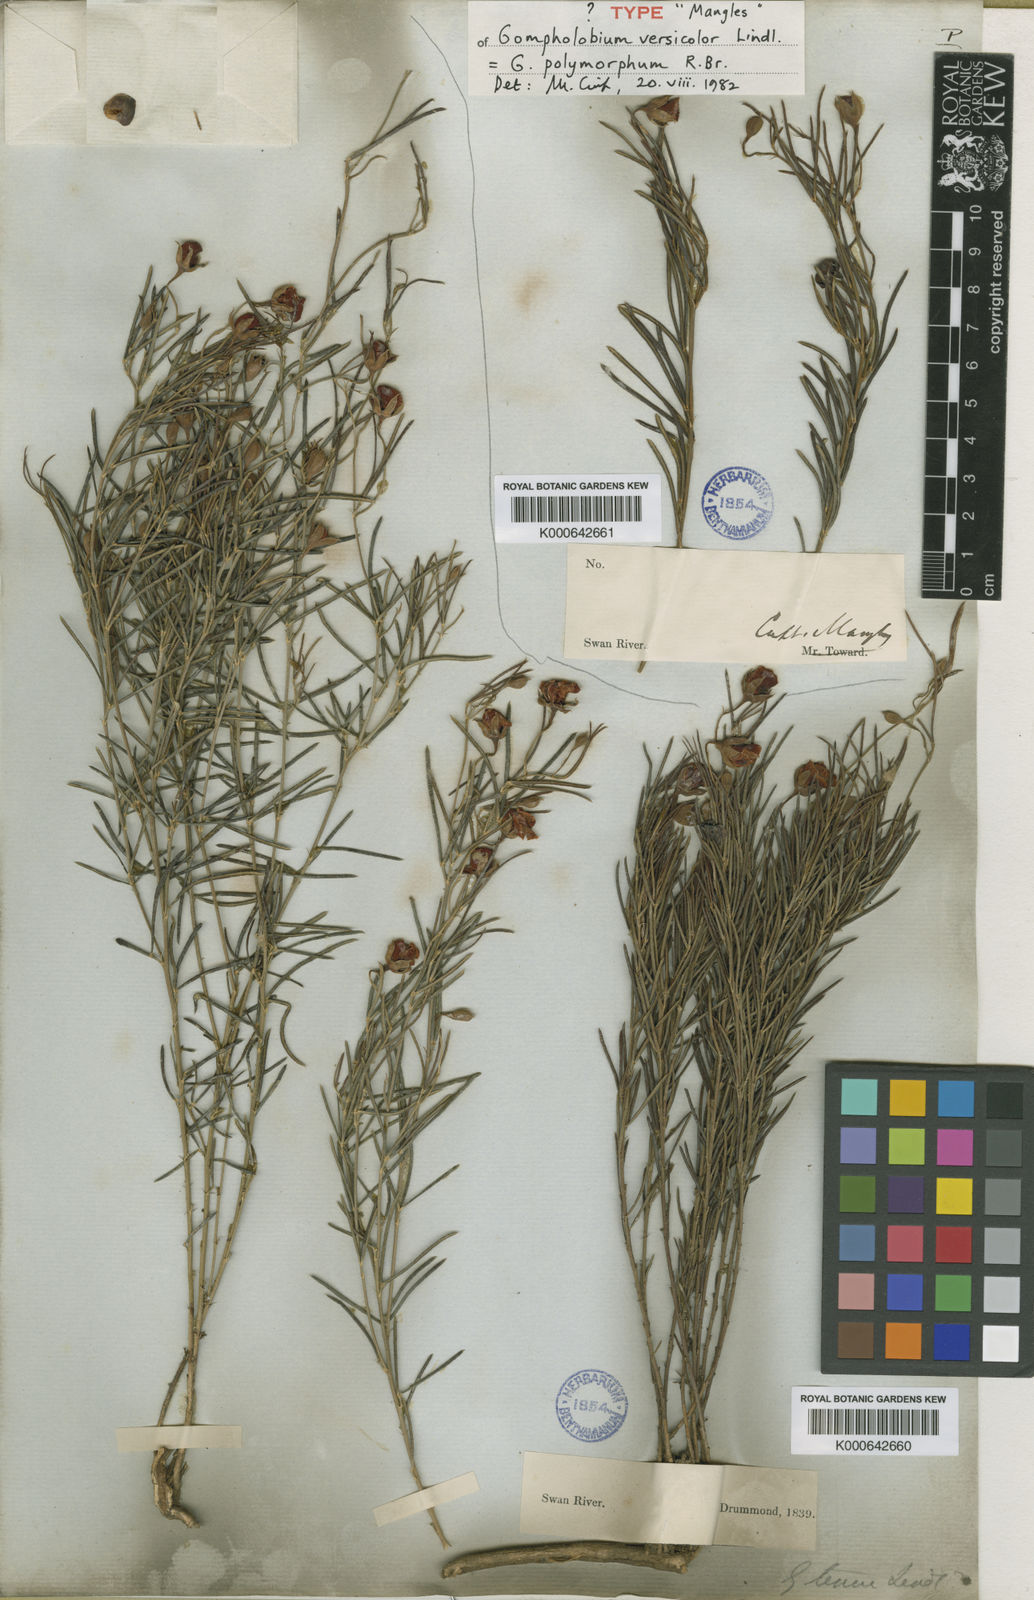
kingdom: Plantae
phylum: Tracheophyta
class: Magnoliopsida
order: Fabales
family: Fabaceae
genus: Gompholobium
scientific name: Gompholobium polymorphum
